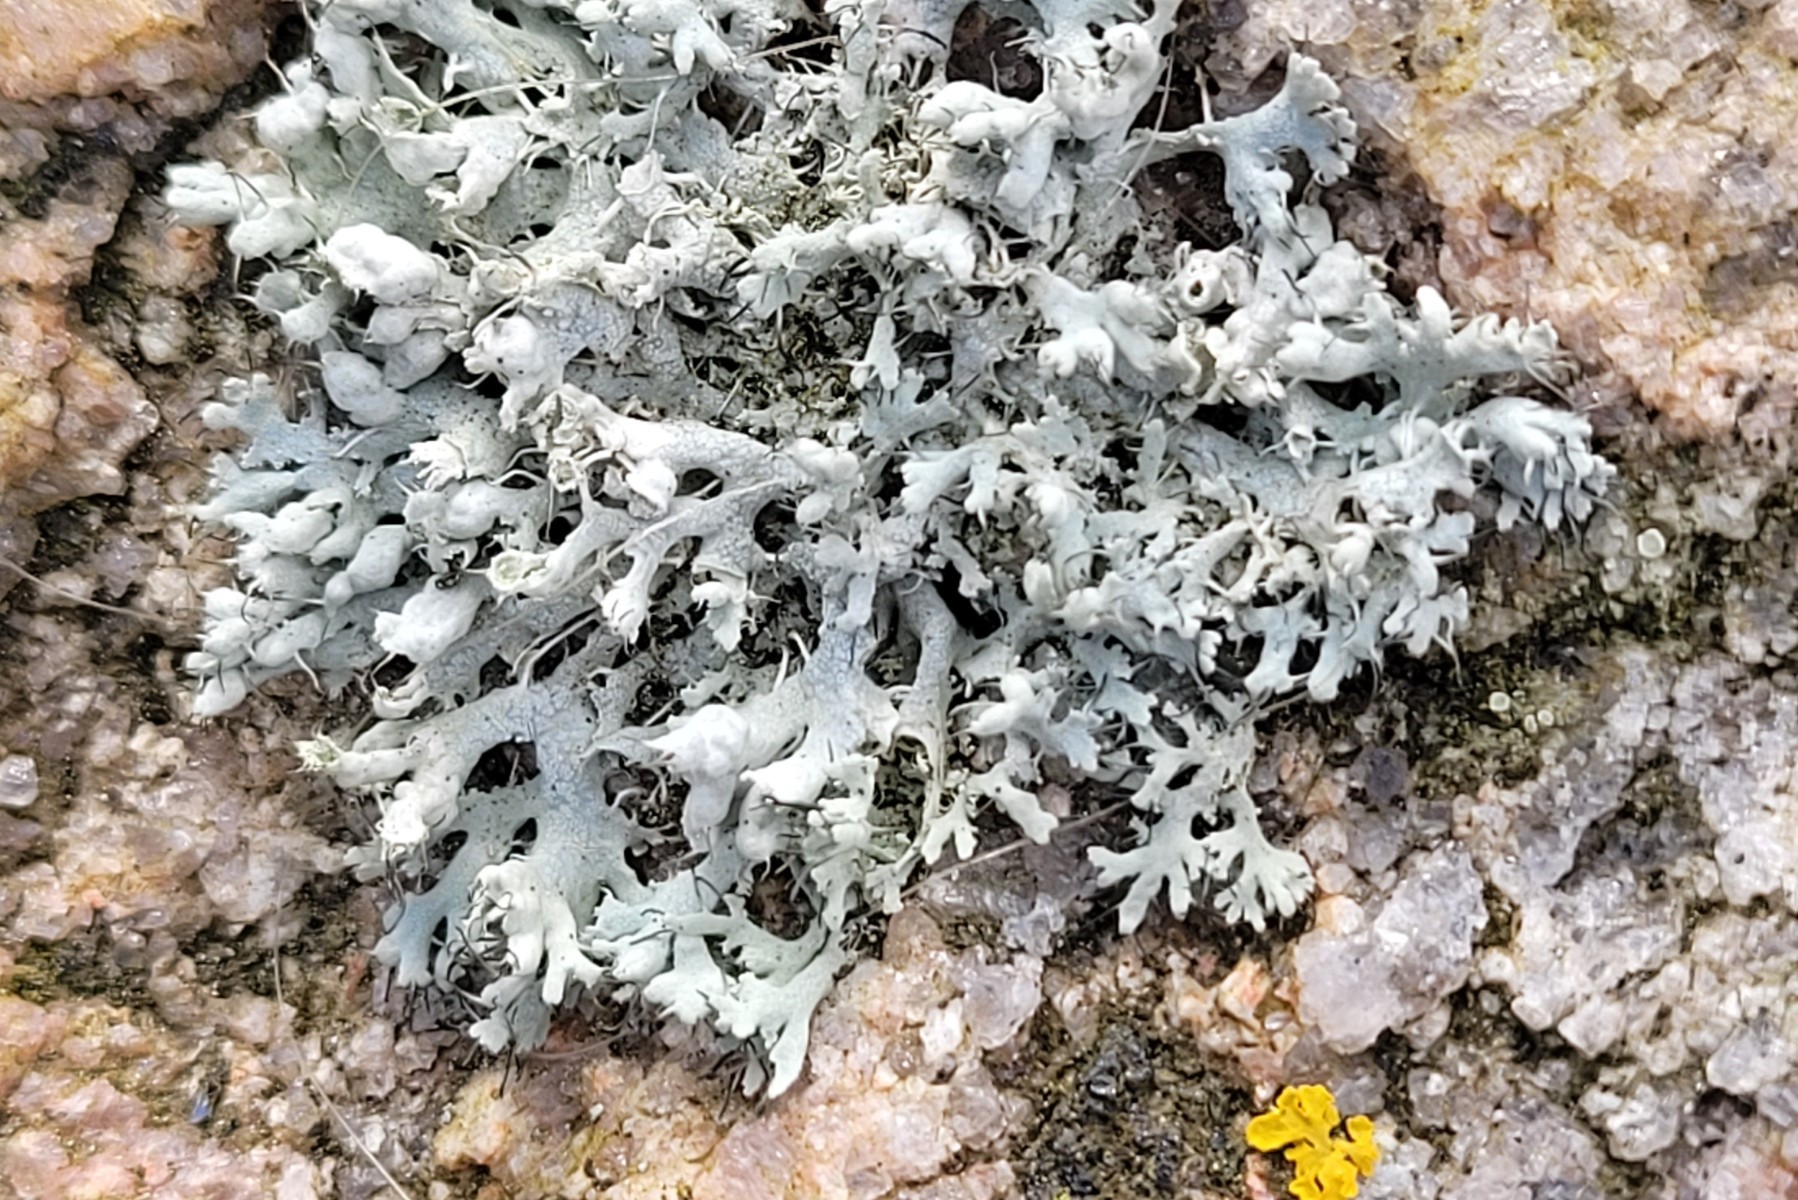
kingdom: Fungi
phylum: Ascomycota
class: Lecanoromycetes
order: Caliciales
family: Physciaceae
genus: Physcia
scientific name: Physcia adscendens
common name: hætte-rosetlav
